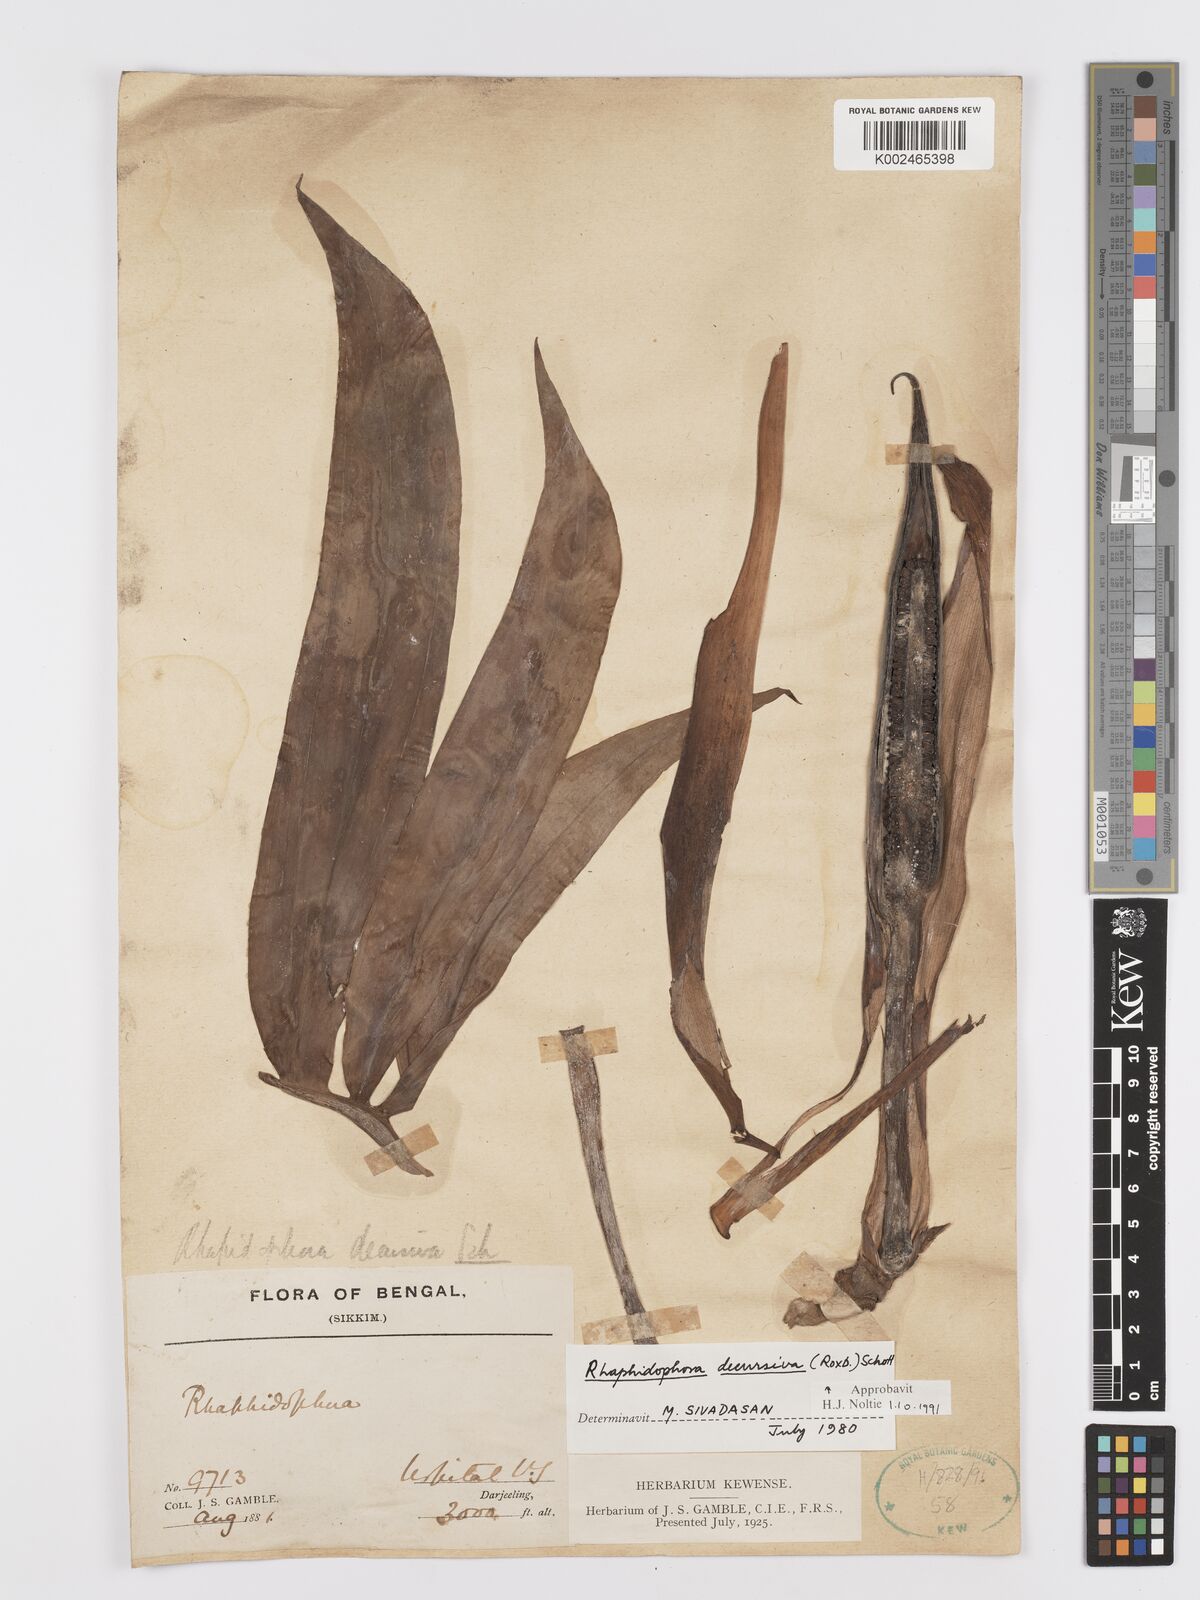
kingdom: Plantae
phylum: Tracheophyta
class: Liliopsida
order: Alismatales
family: Araceae
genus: Rhaphidophora
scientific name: Rhaphidophora decursiva
